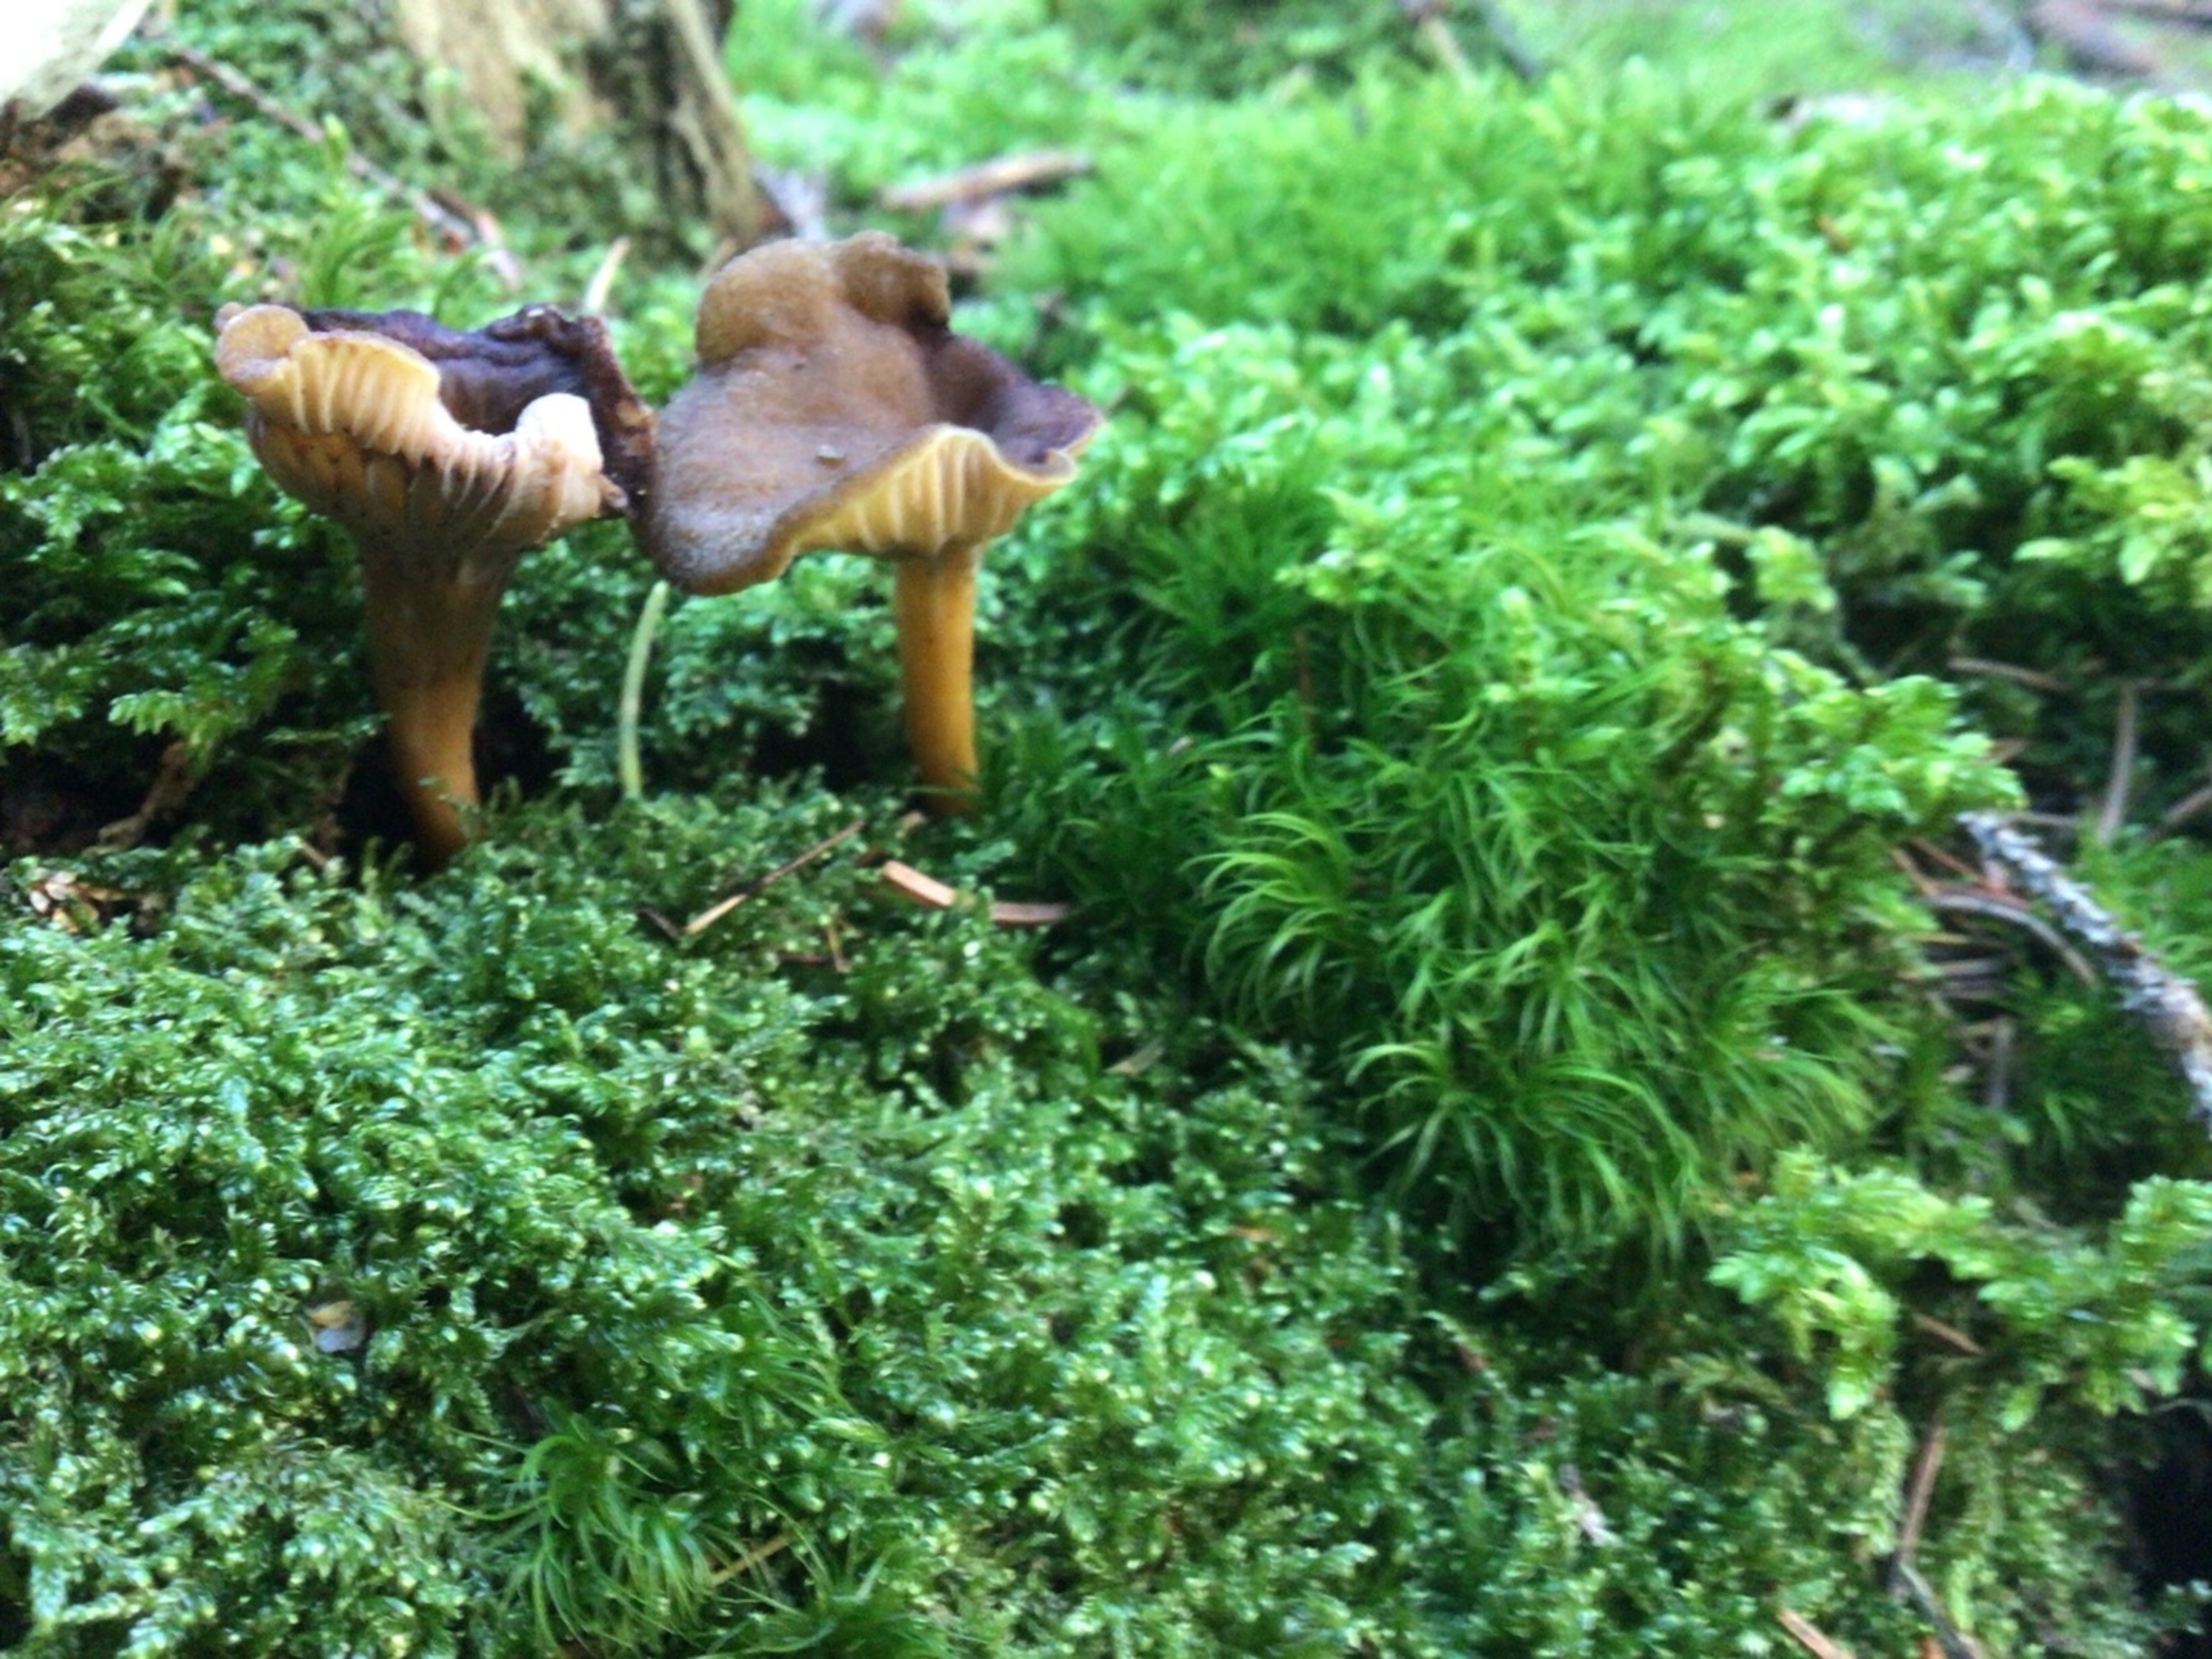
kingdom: Fungi
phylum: Basidiomycota
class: Agaricomycetes
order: Cantharellales
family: Hydnaceae
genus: Craterellus
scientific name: Craterellus tubaeformis
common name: Tragt-kantarel
